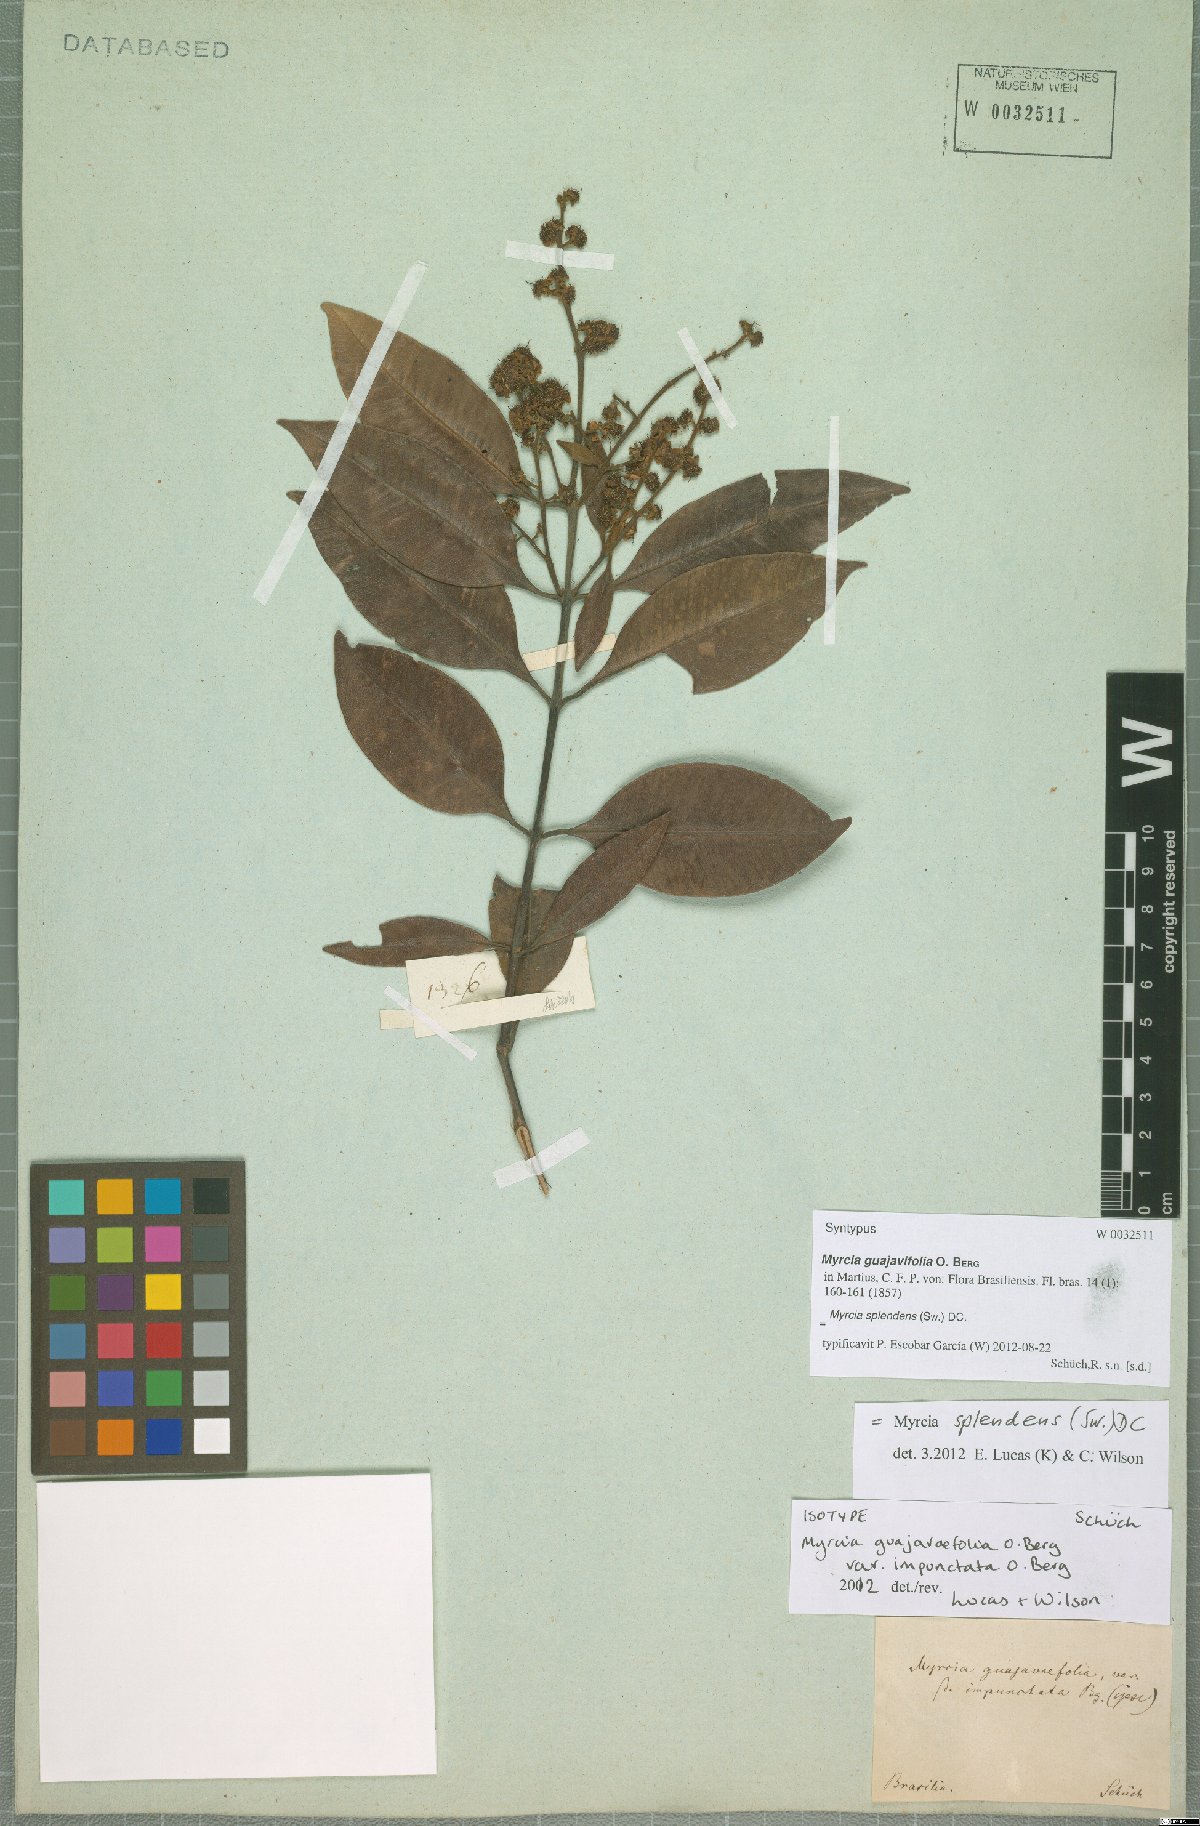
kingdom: Plantae
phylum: Tracheophyta
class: Magnoliopsida
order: Myrtales
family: Myrtaceae
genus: Myrcia
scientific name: Myrcia splendens
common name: Surinam cherry
